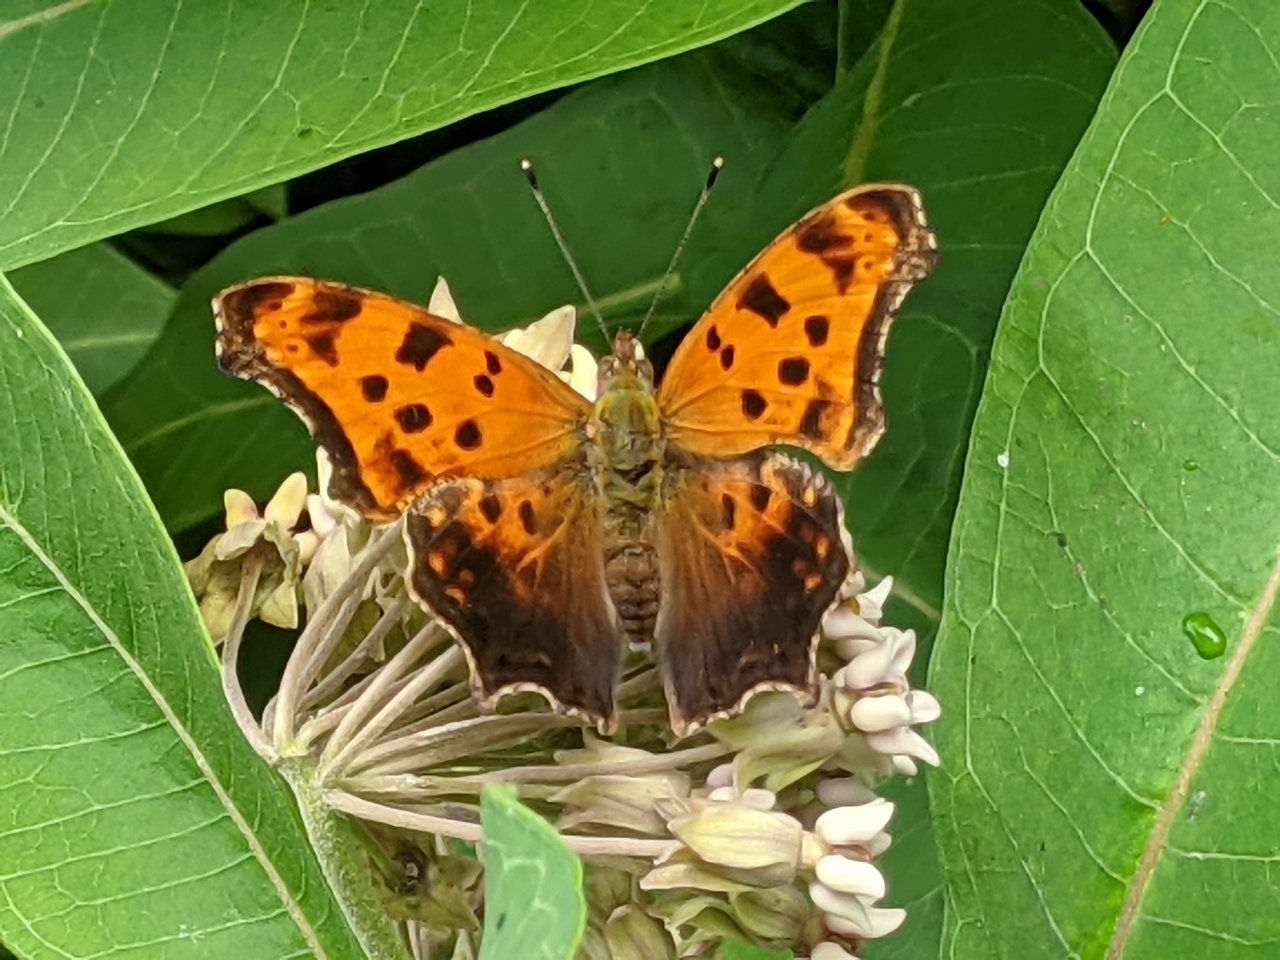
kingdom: Animalia
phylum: Arthropoda
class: Insecta
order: Lepidoptera
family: Nymphalidae
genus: Polygonia
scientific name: Polygonia comma
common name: Eastern Comma
